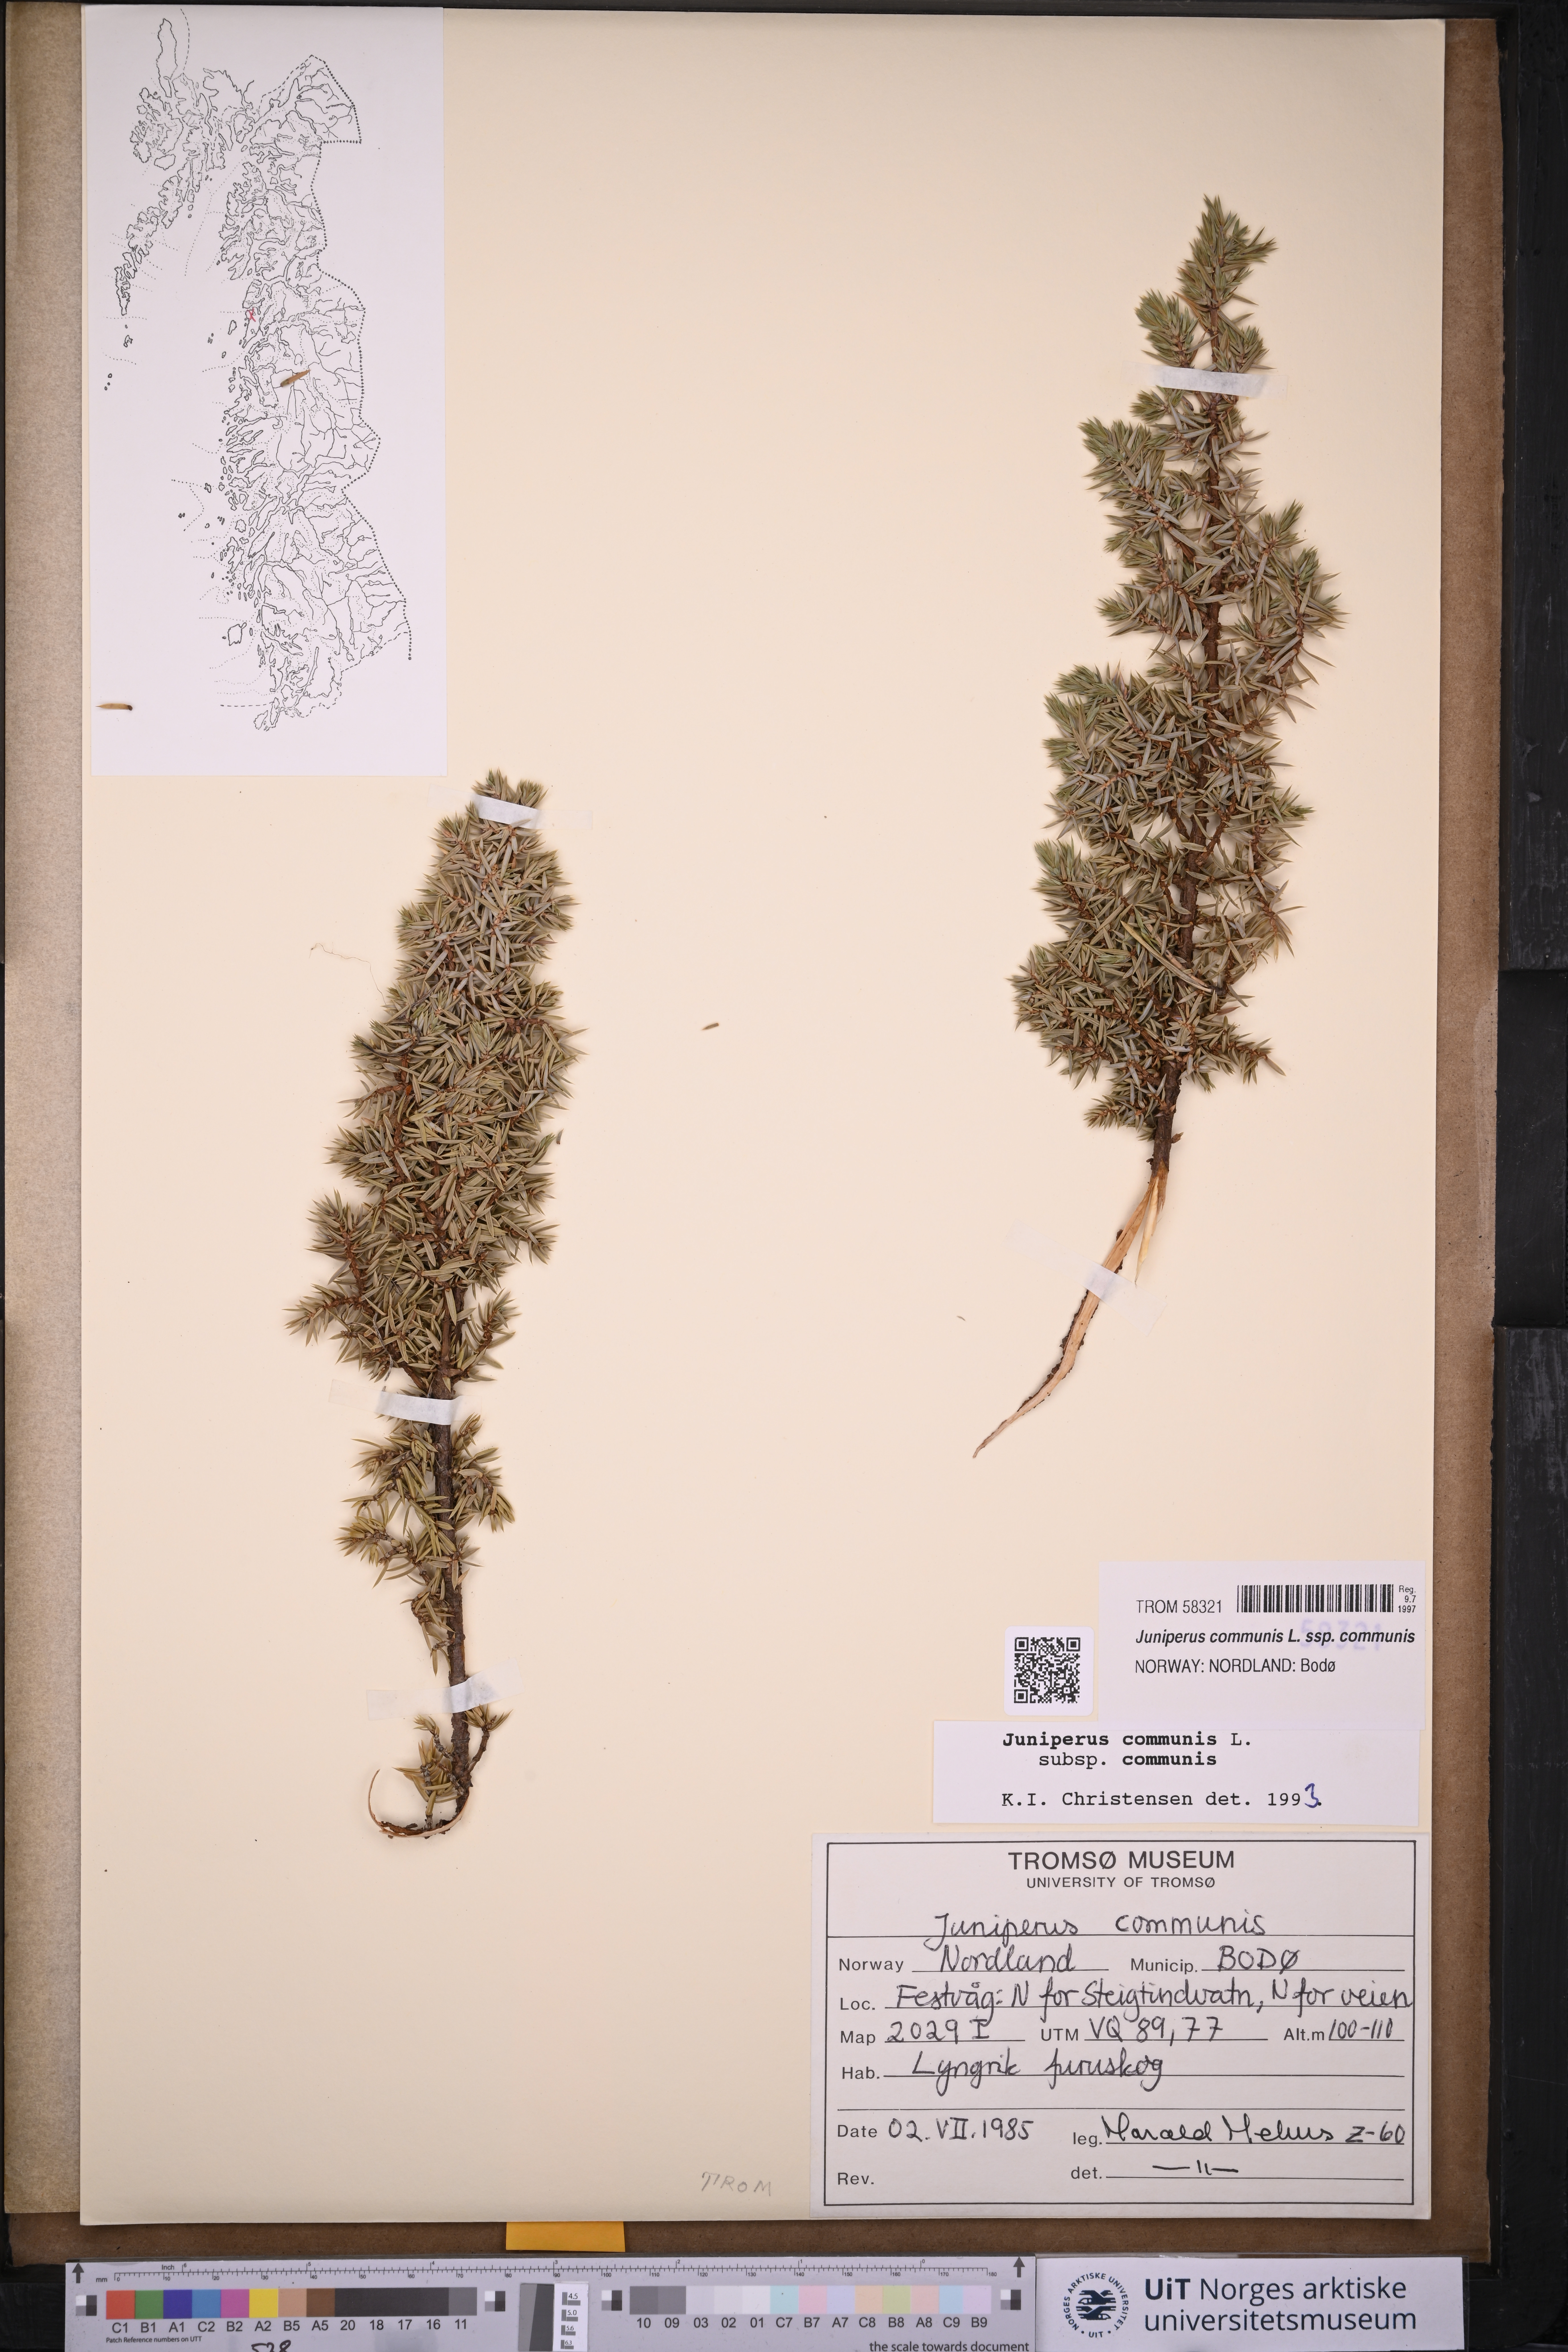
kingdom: Plantae
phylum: Tracheophyta
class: Pinopsida
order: Pinales
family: Cupressaceae
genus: Juniperus
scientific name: Juniperus communis
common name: Common juniper
